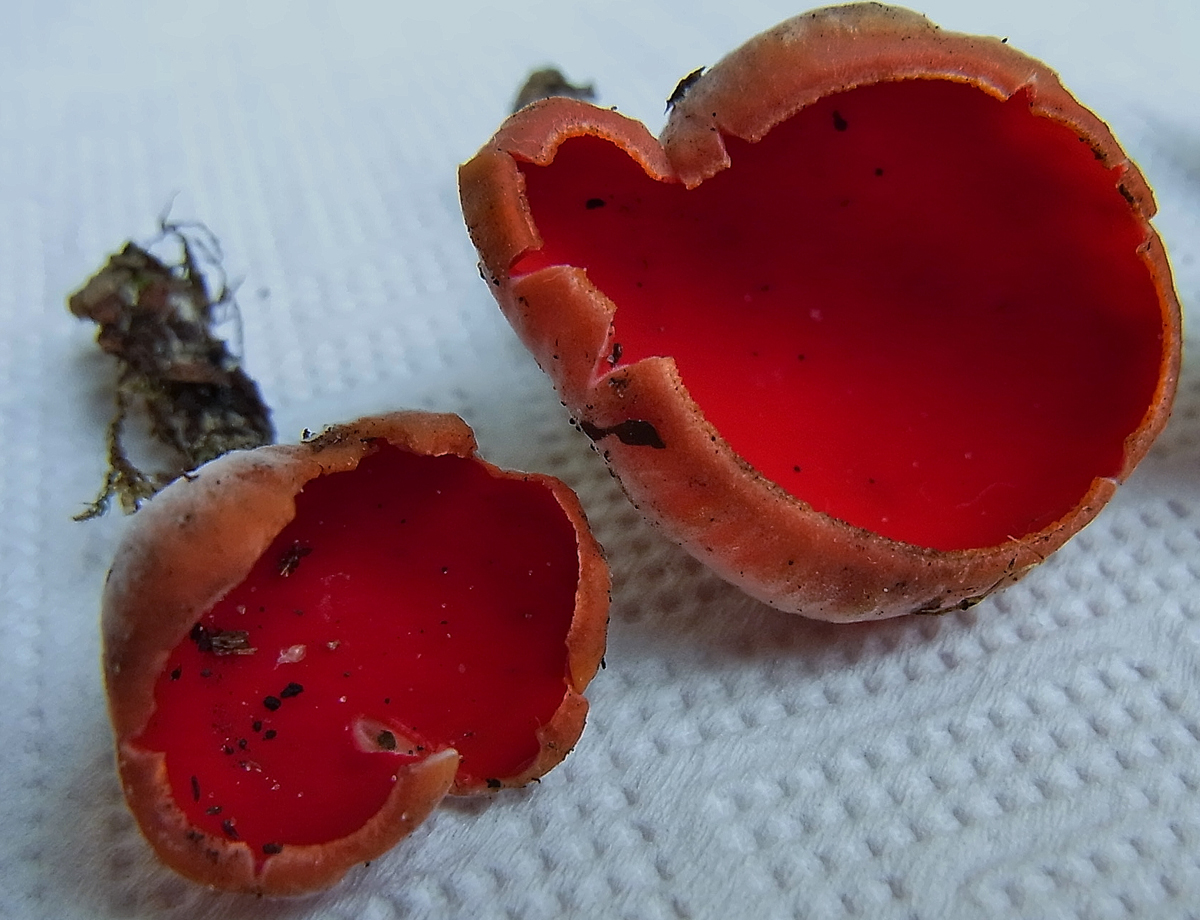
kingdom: Fungi
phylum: Ascomycota
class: Pezizomycetes
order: Pezizales
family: Sarcoscyphaceae
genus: Sarcoscypha
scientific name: Sarcoscypha austriaca
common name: Scarlet elfcup
